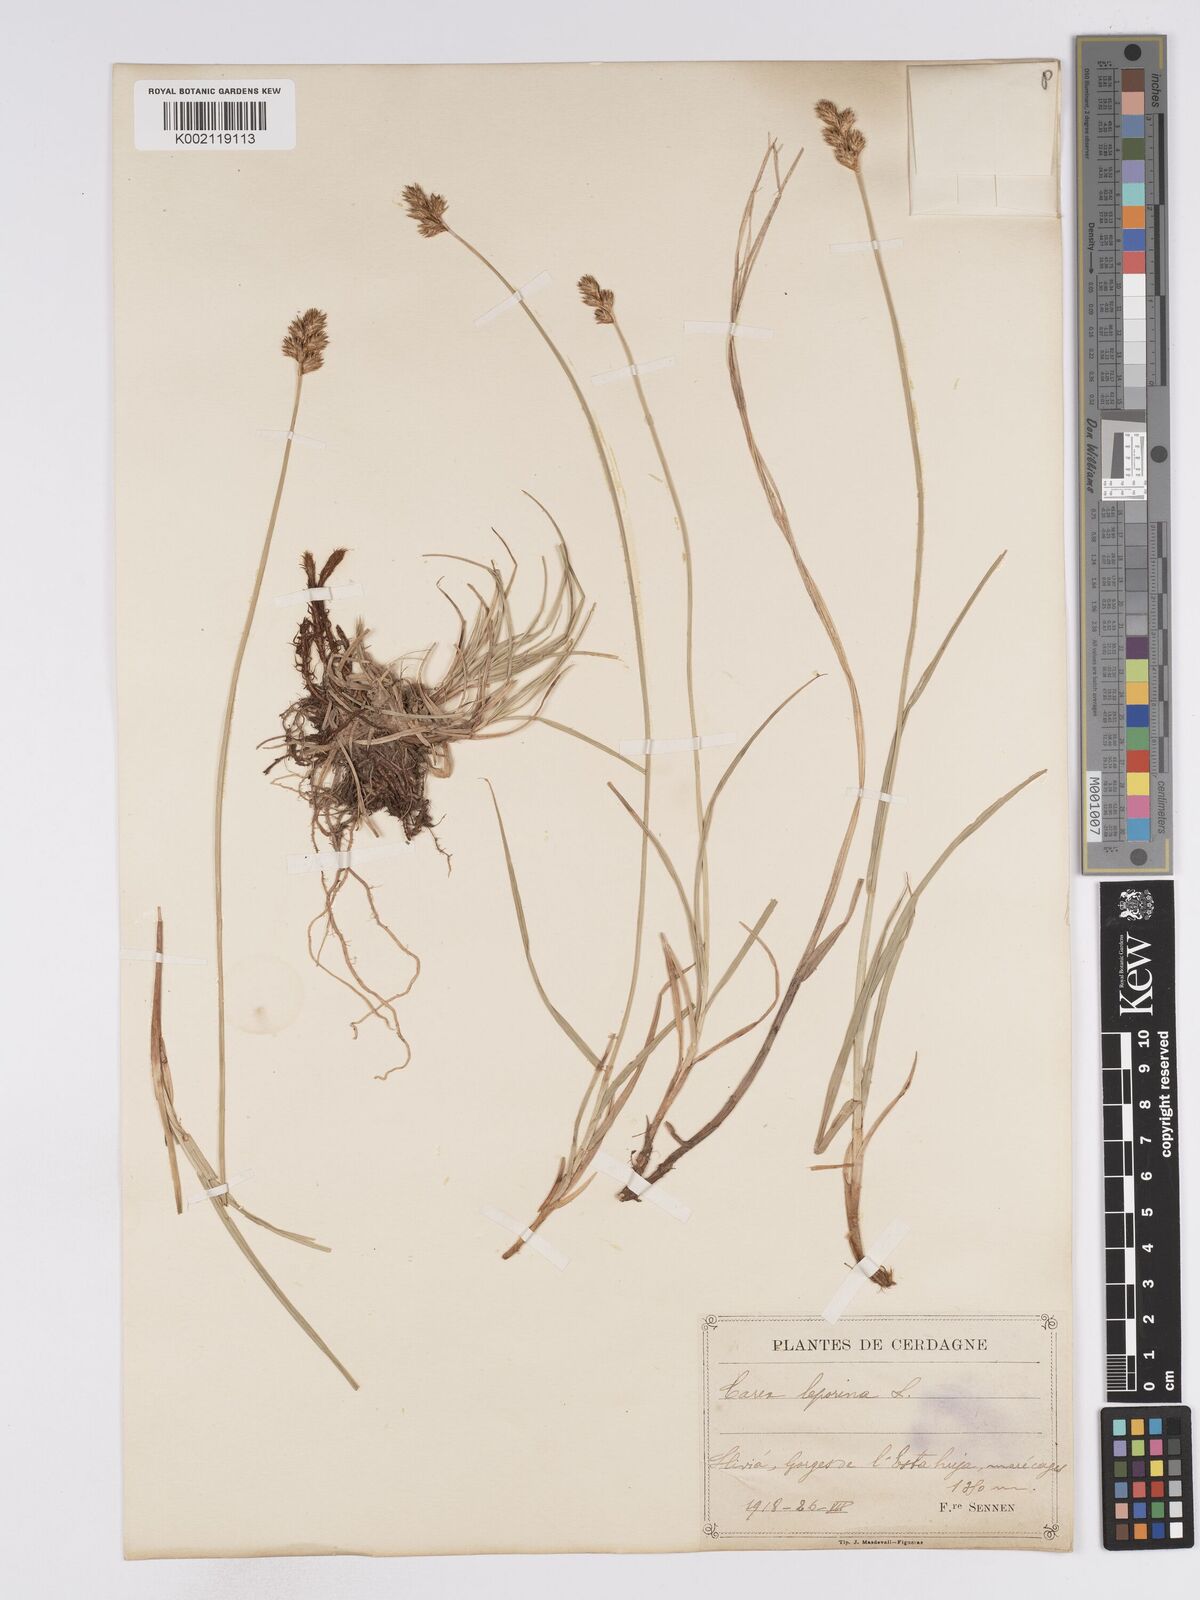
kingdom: Plantae
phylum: Tracheophyta
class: Liliopsida
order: Poales
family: Cyperaceae
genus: Carex
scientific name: Carex leporina
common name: Oval sedge
